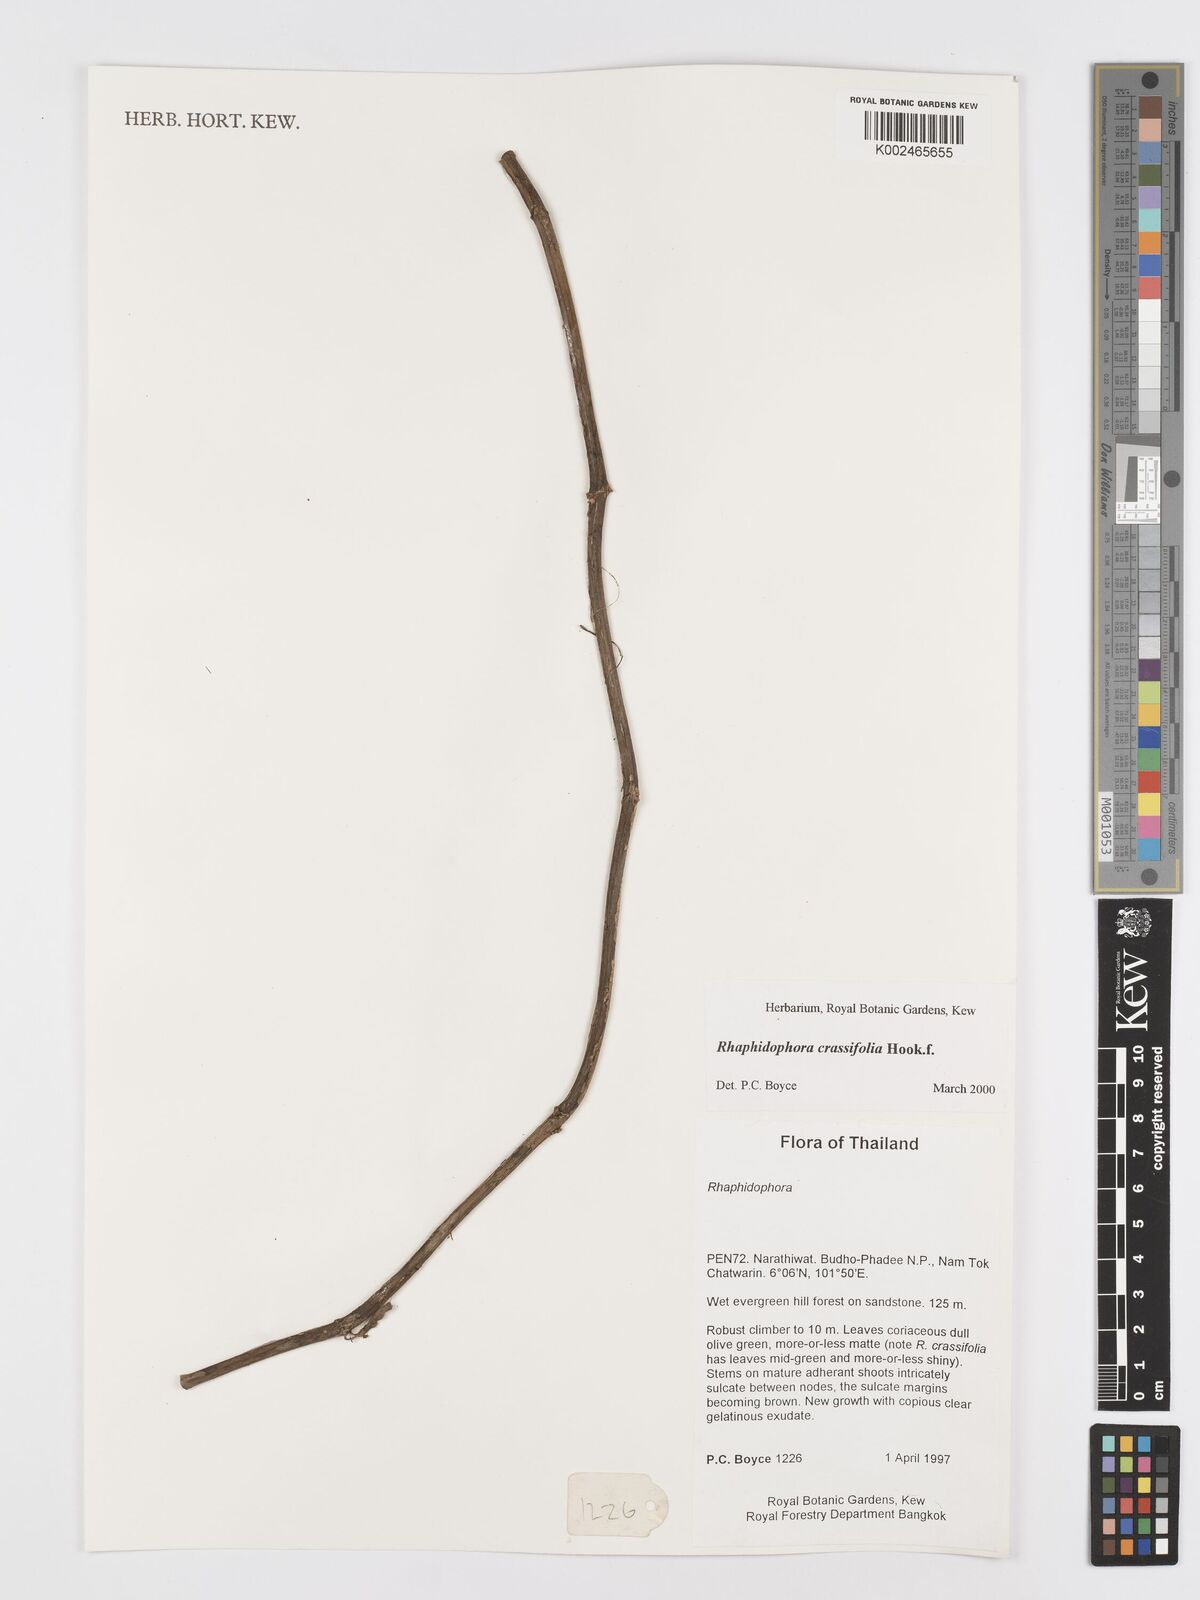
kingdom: Plantae
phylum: Tracheophyta
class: Liliopsida
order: Alismatales
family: Araceae
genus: Rhaphidophora
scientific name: Rhaphidophora crassifolia
